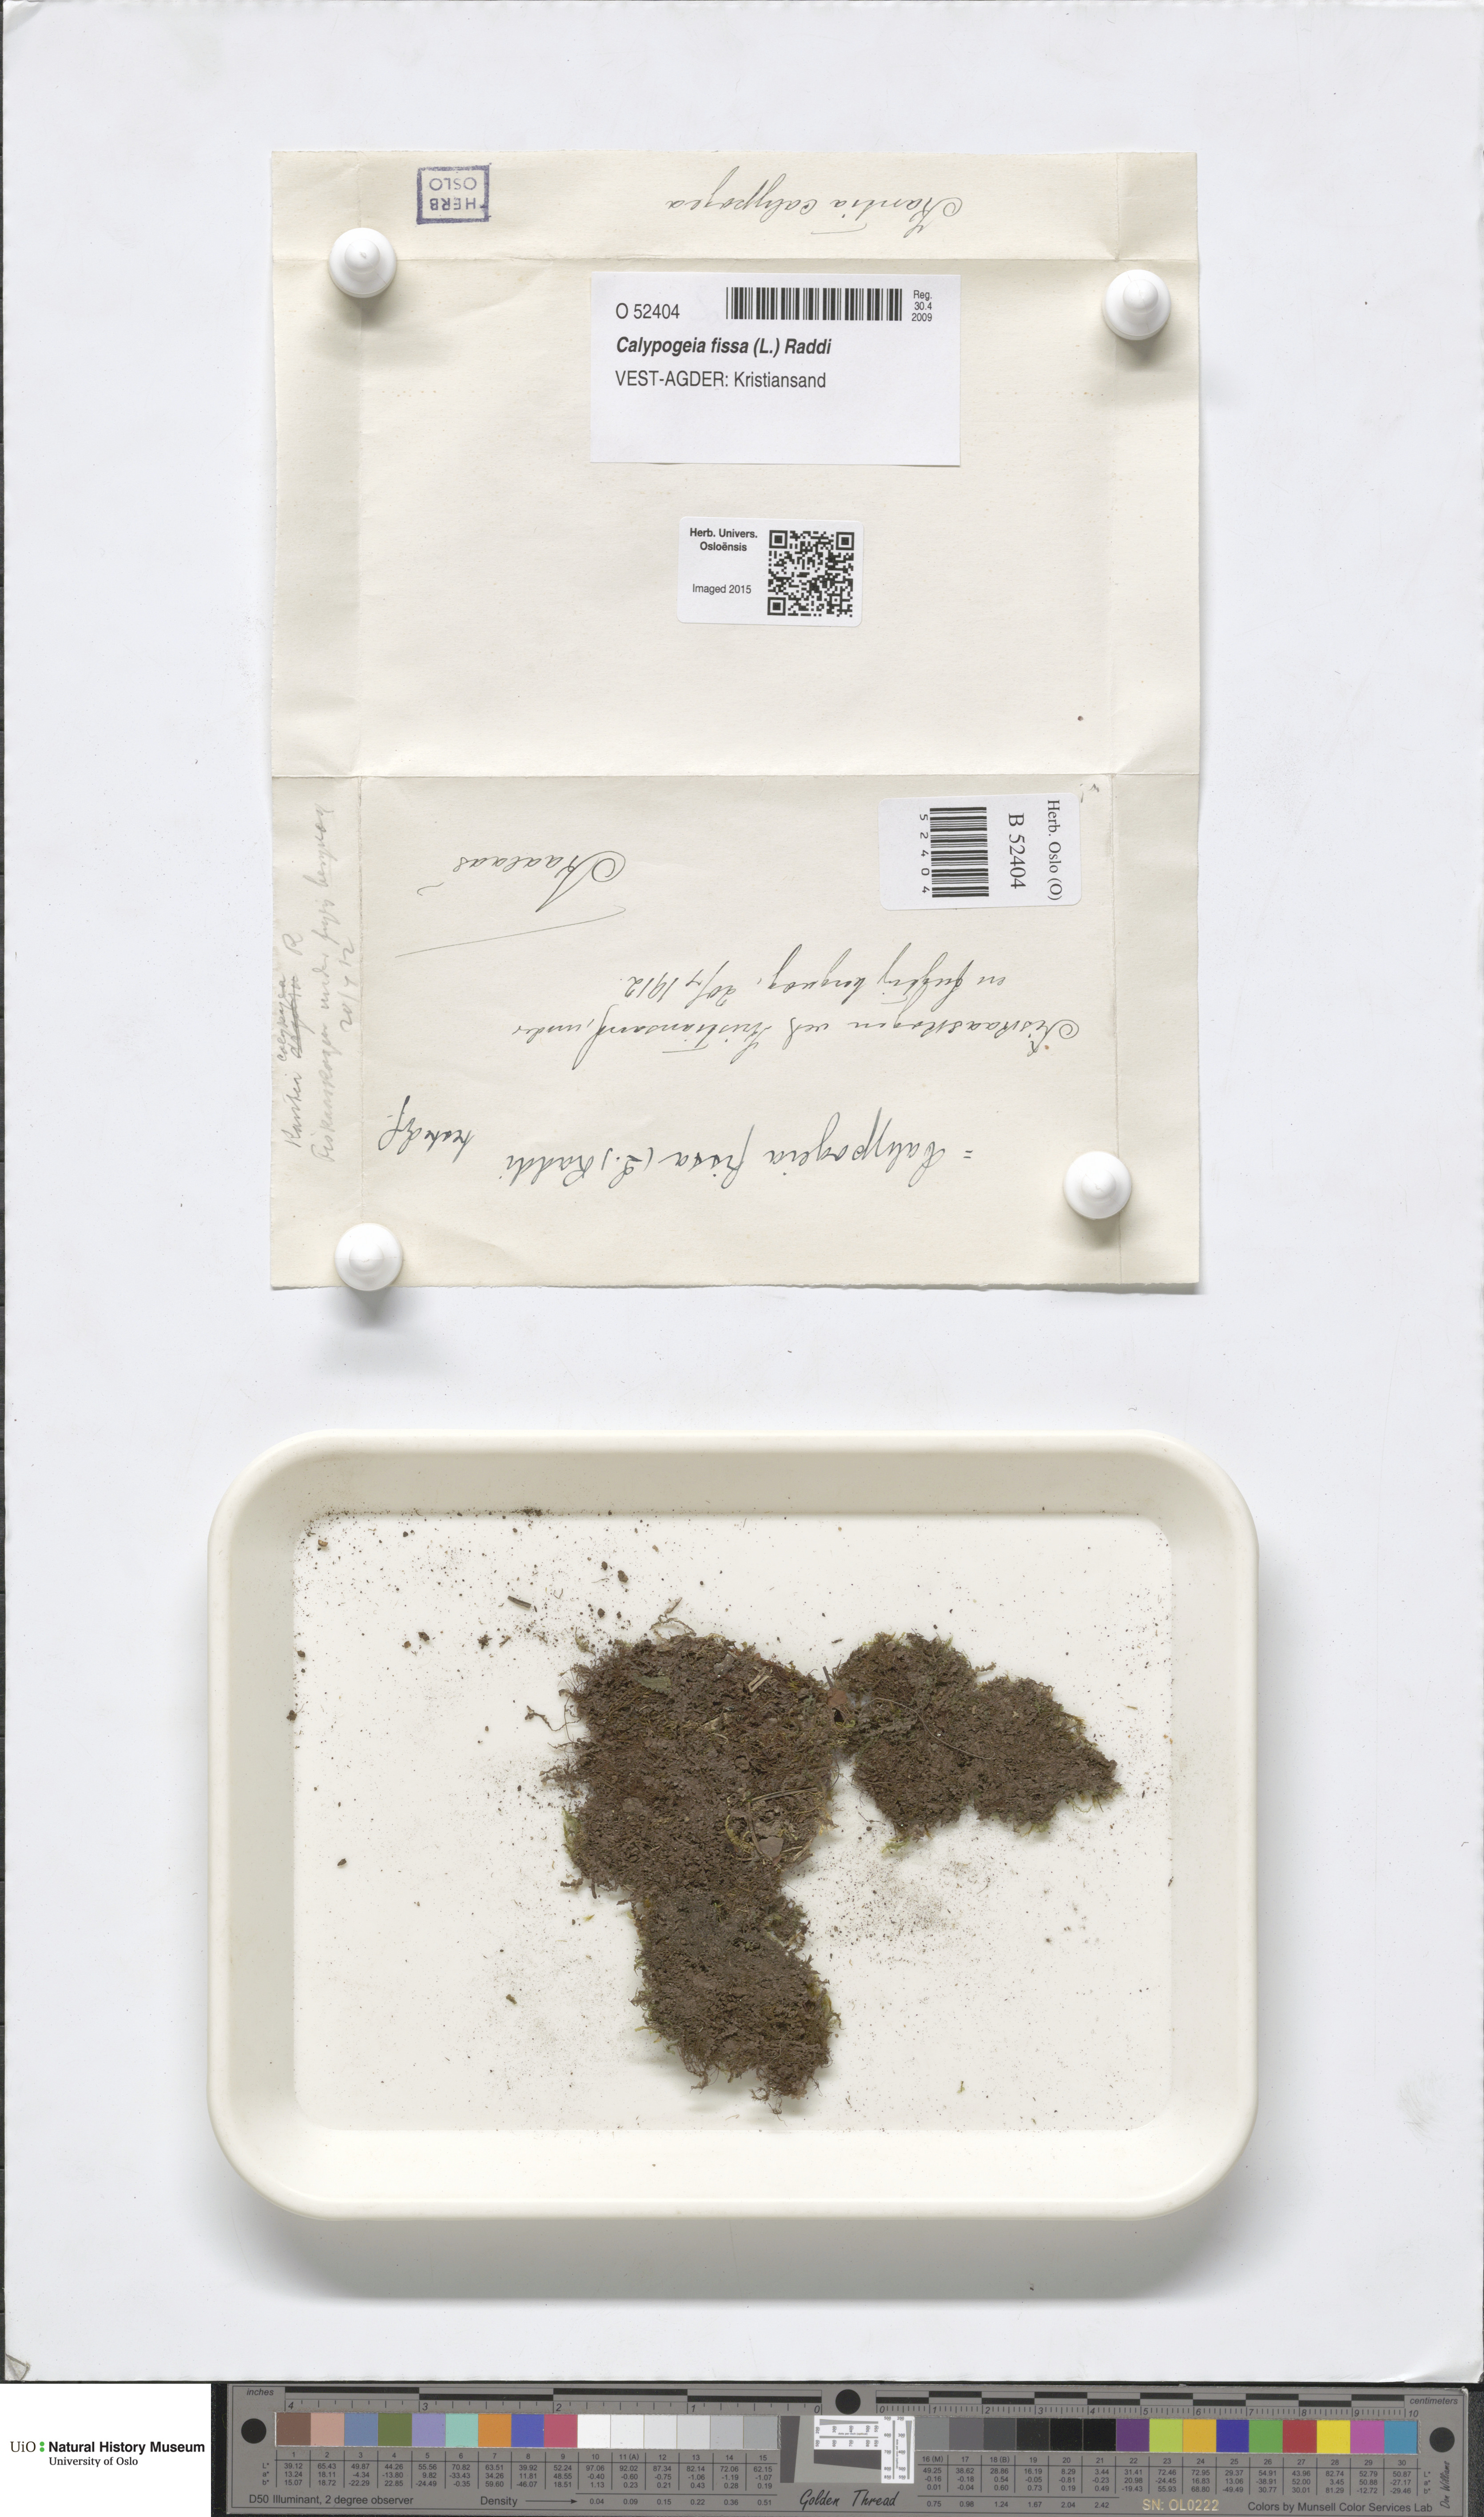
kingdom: Plantae
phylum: Marchantiophyta
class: Jungermanniopsida
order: Jungermanniales
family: Calypogeiaceae
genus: Calypogeia
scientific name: Calypogeia fissa
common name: Common pouchwort
